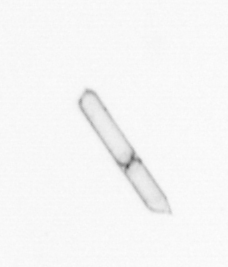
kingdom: Chromista
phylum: Ochrophyta
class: Bacillariophyceae
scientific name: Bacillariophyceae
